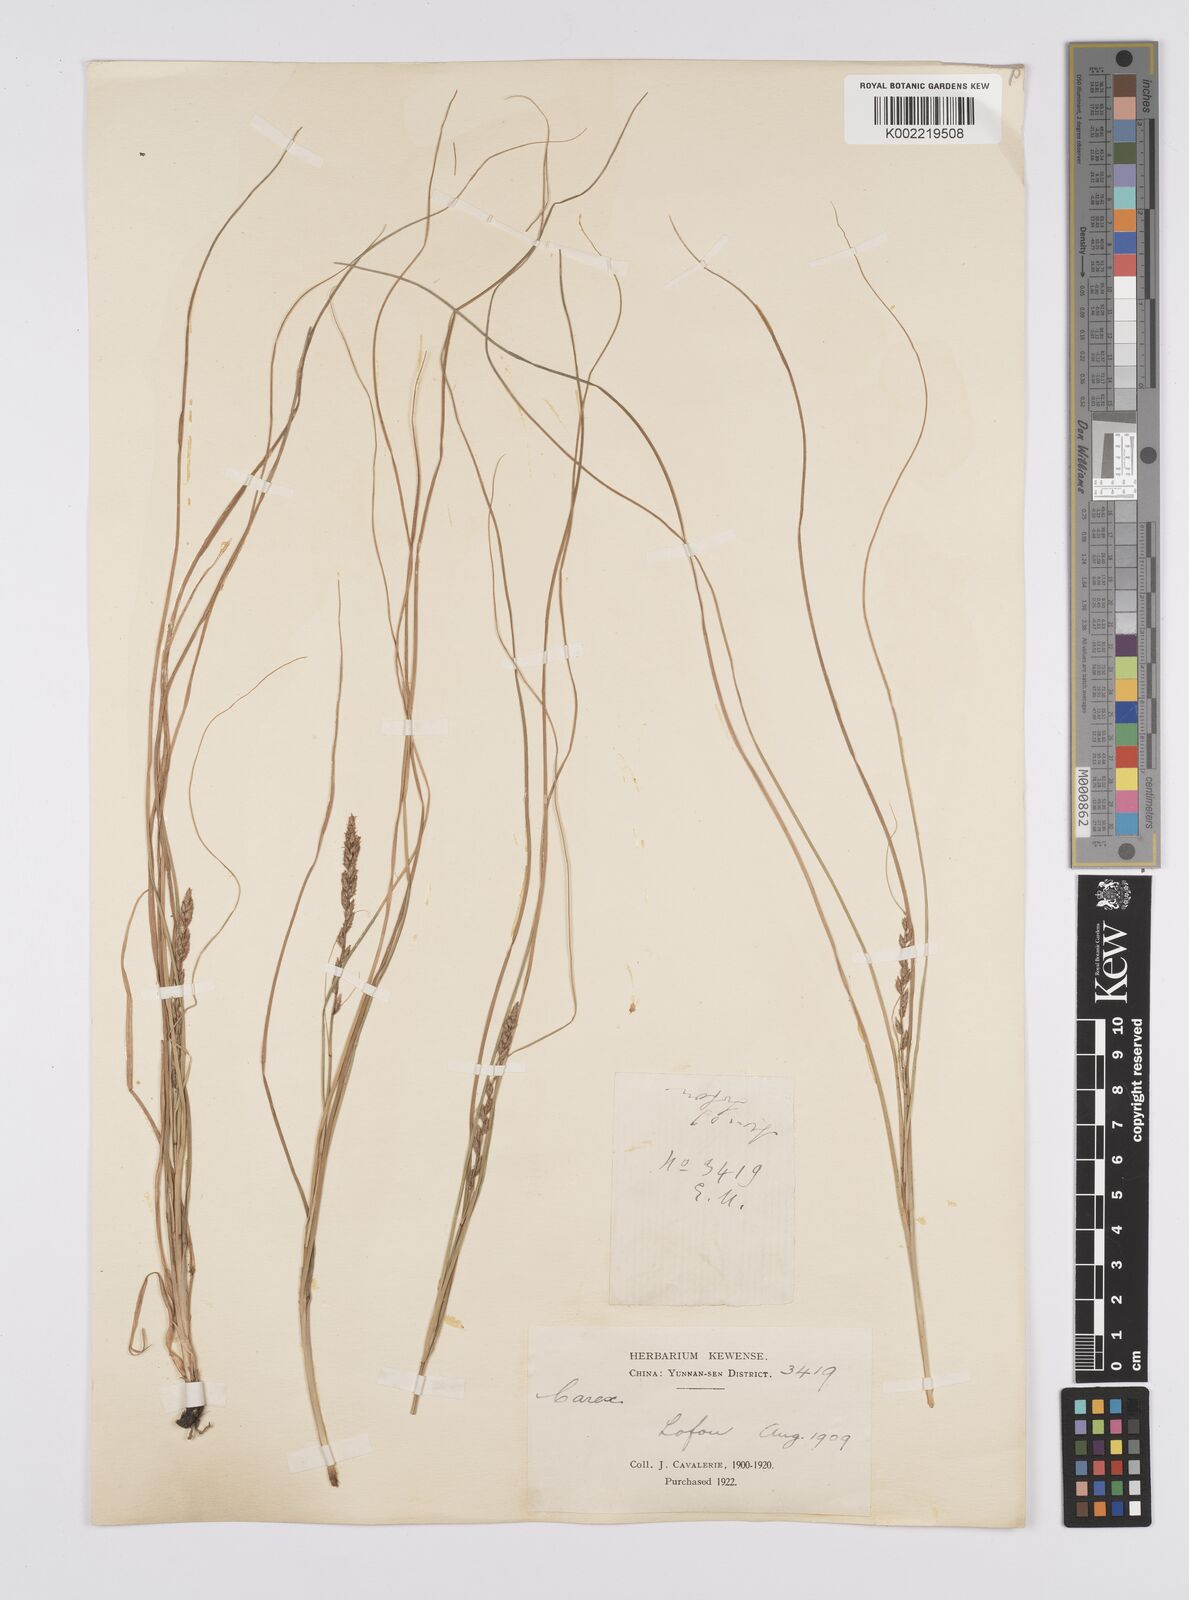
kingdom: Plantae
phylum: Tracheophyta
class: Liliopsida
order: Poales
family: Cyperaceae
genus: Carex
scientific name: Carex nubigena
